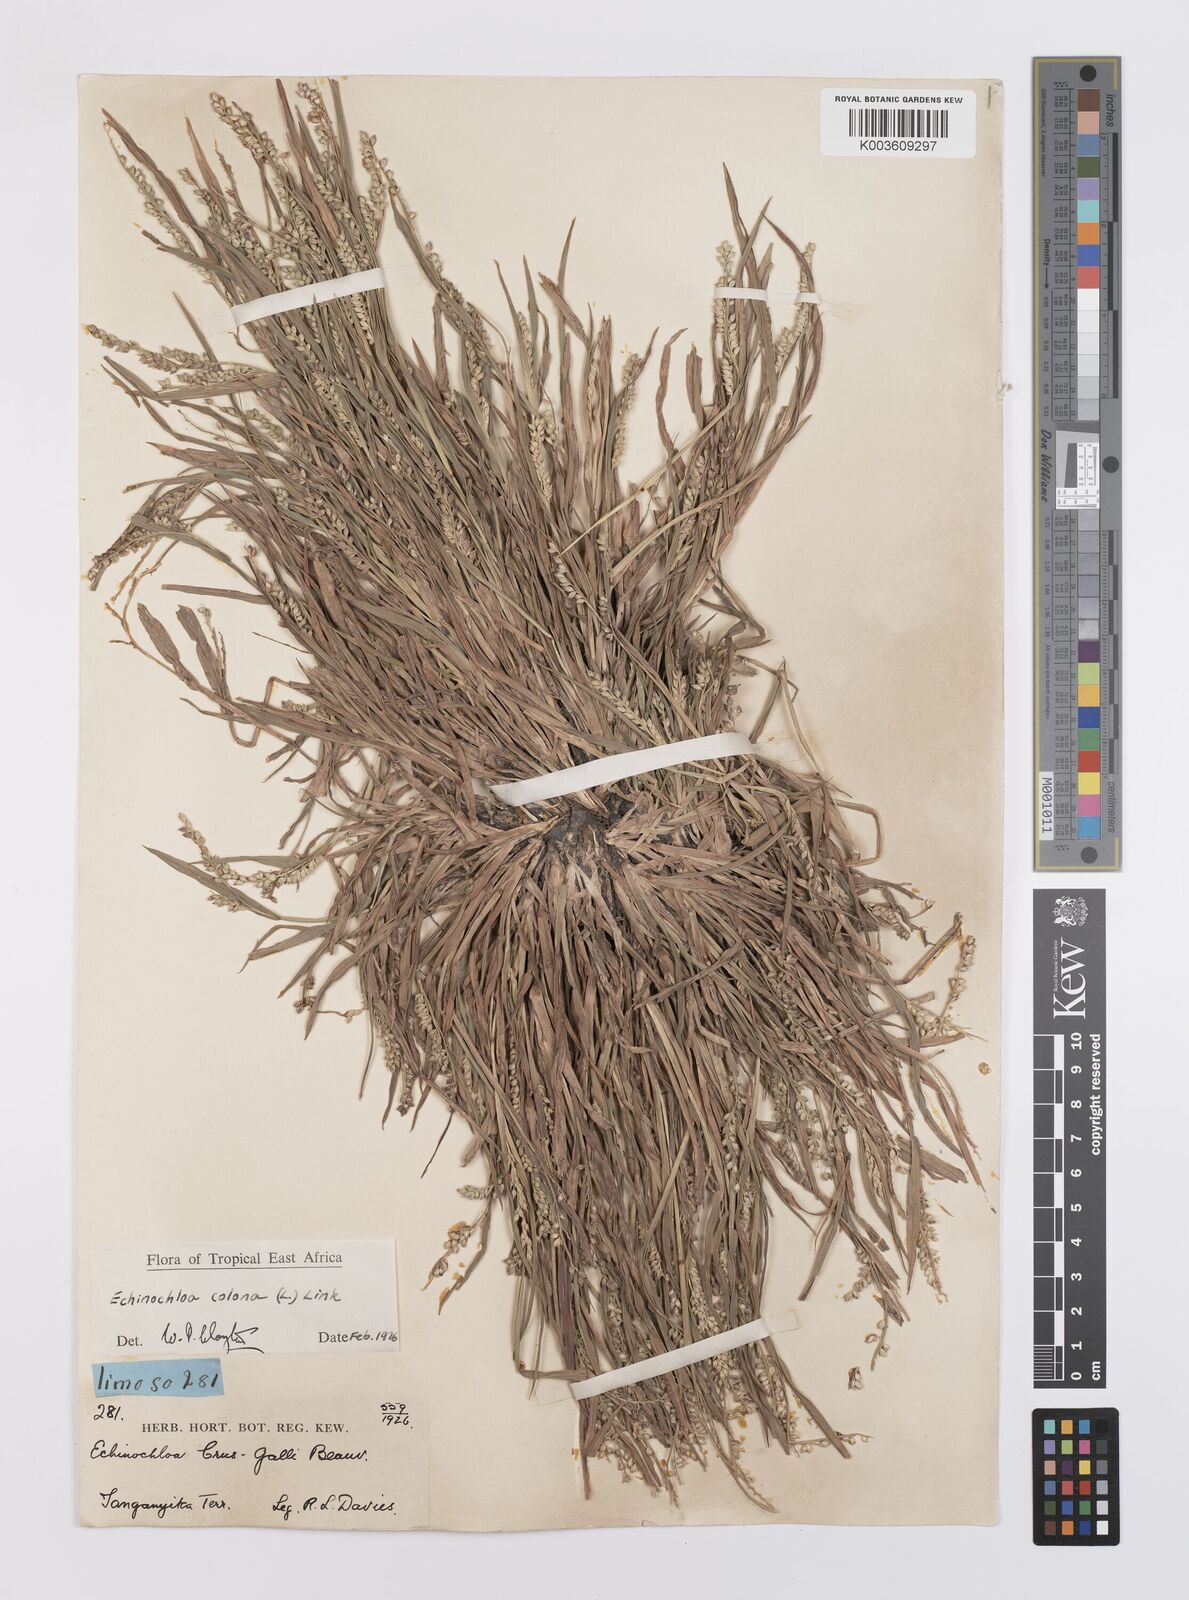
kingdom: Plantae
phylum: Tracheophyta
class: Liliopsida
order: Poales
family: Poaceae
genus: Echinochloa
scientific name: Echinochloa colonum
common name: Jungle rice
